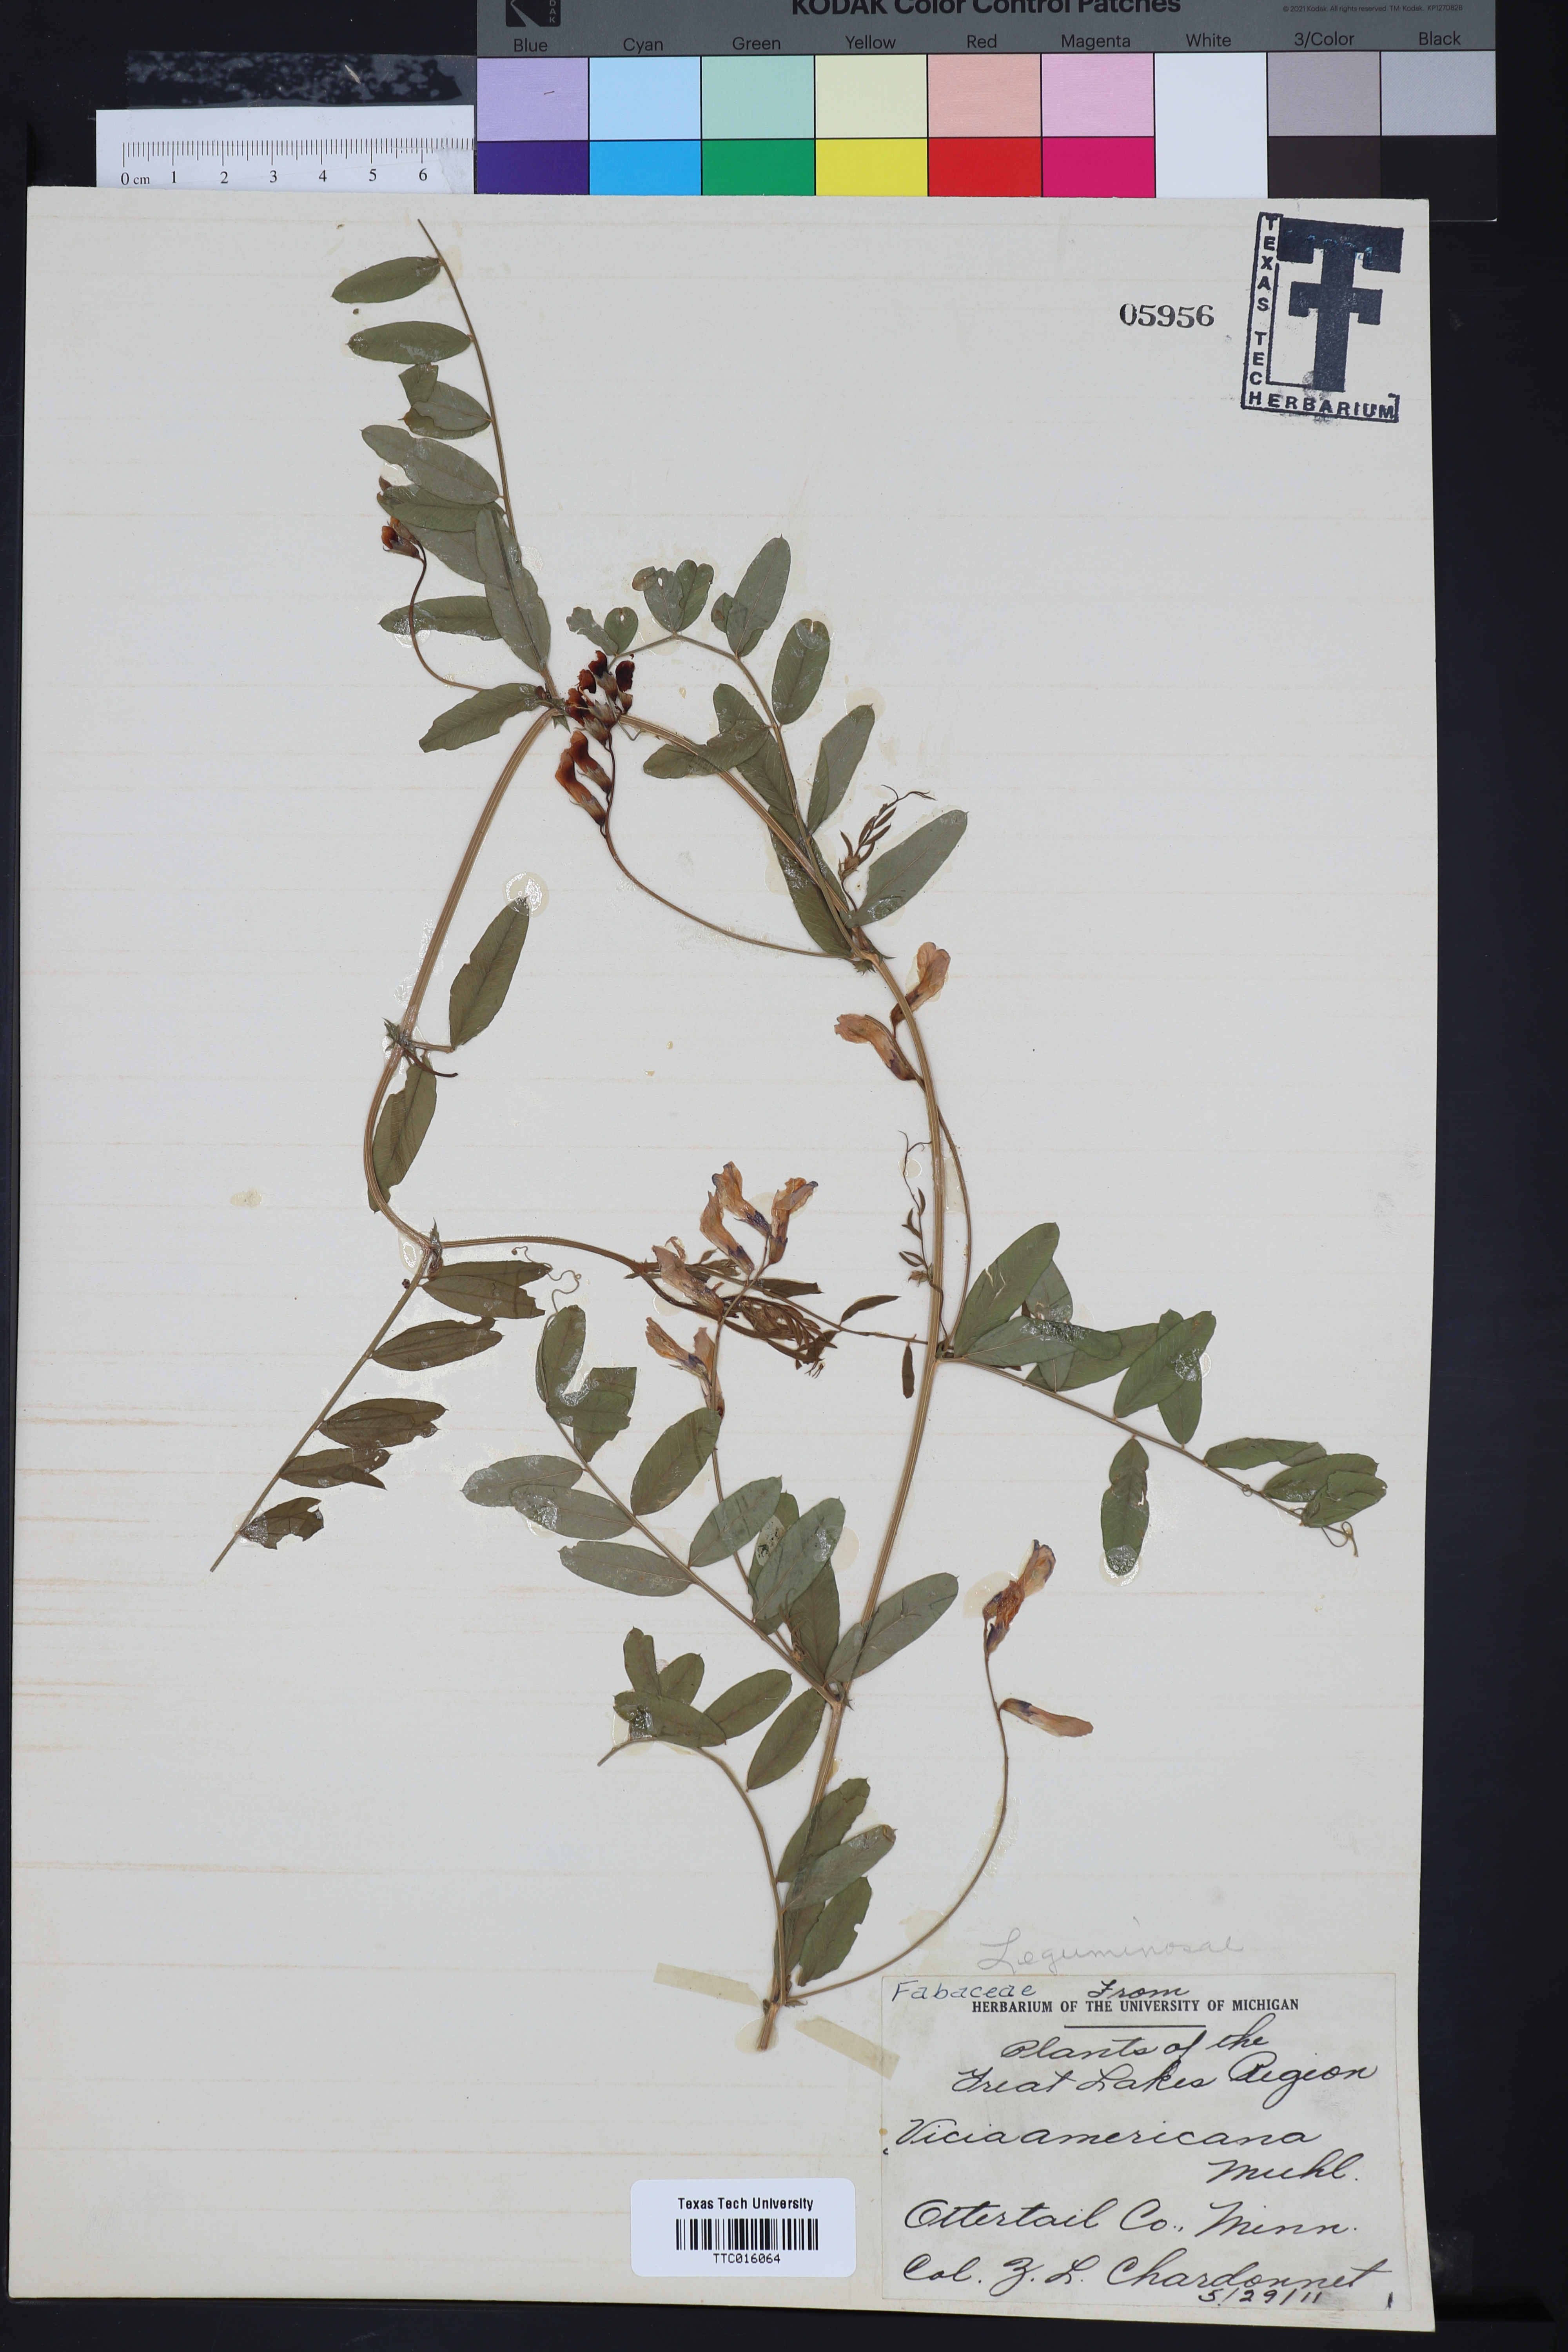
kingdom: Plantae
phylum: Tracheophyta
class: Magnoliopsida
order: Fabales
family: Fabaceae
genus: Vicia
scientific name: Vicia americana
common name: American vetch
